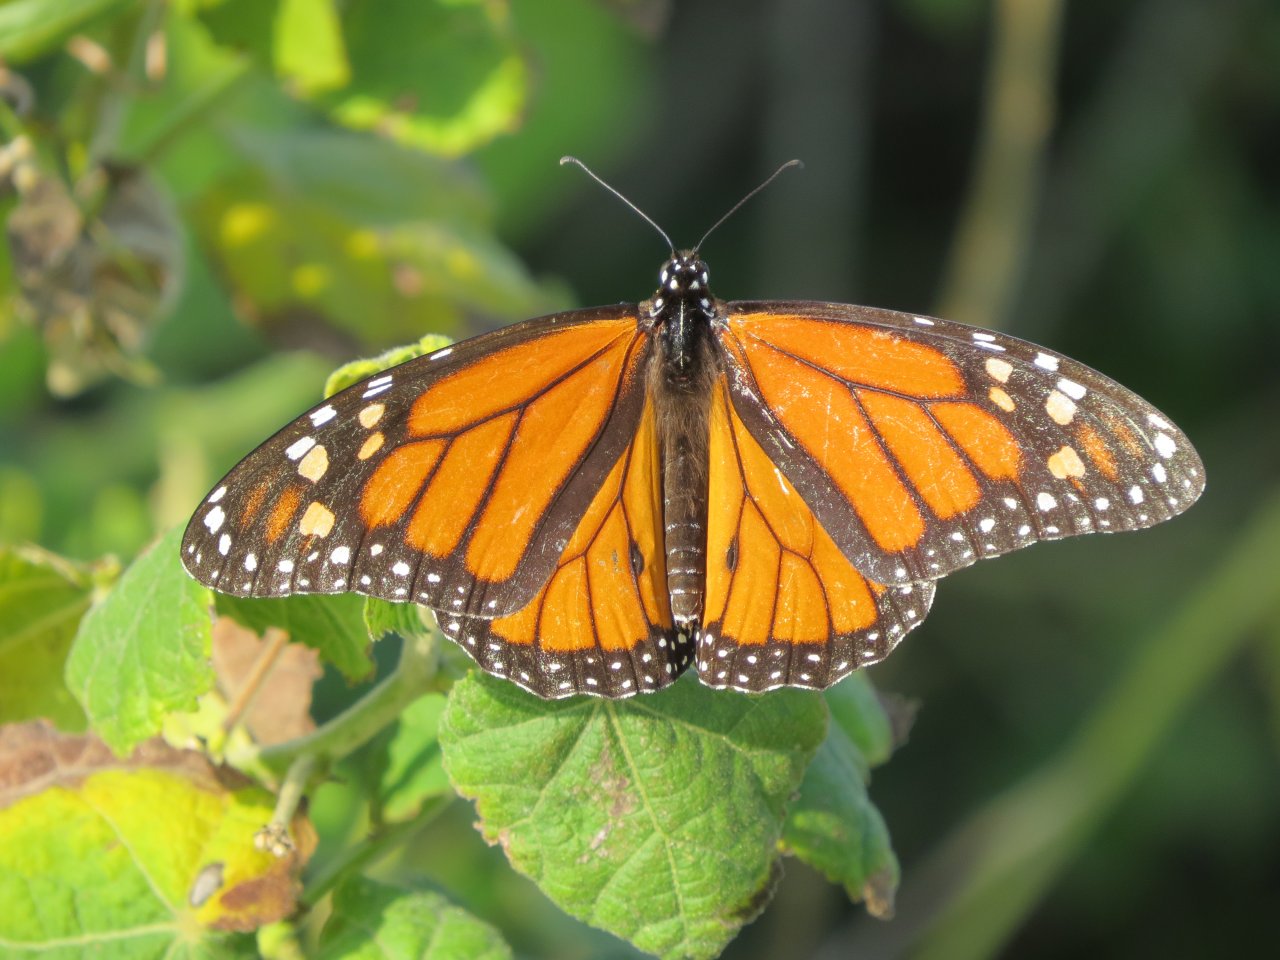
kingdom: Animalia
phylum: Arthropoda
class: Insecta
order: Lepidoptera
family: Nymphalidae
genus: Danaus
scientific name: Danaus plexippus
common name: Monarch
